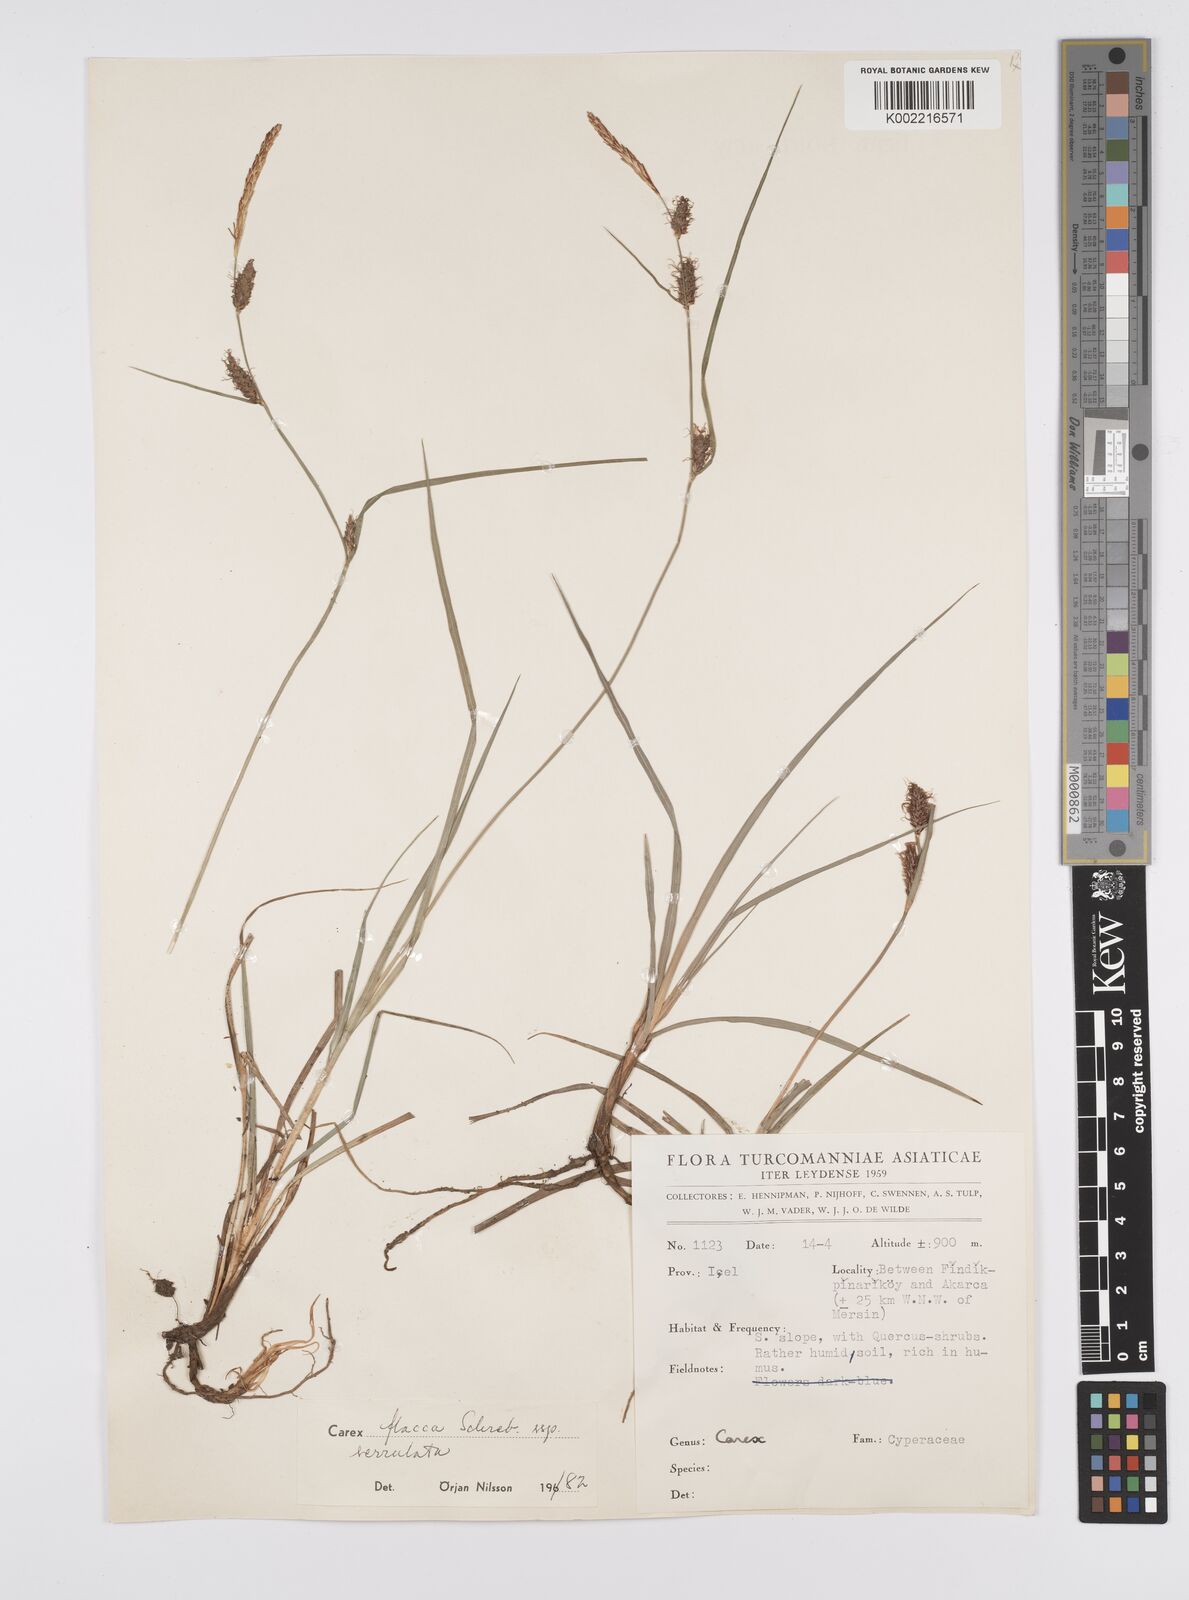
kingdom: Plantae
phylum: Tracheophyta
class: Liliopsida
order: Poales
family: Cyperaceae
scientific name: Cyperaceae
